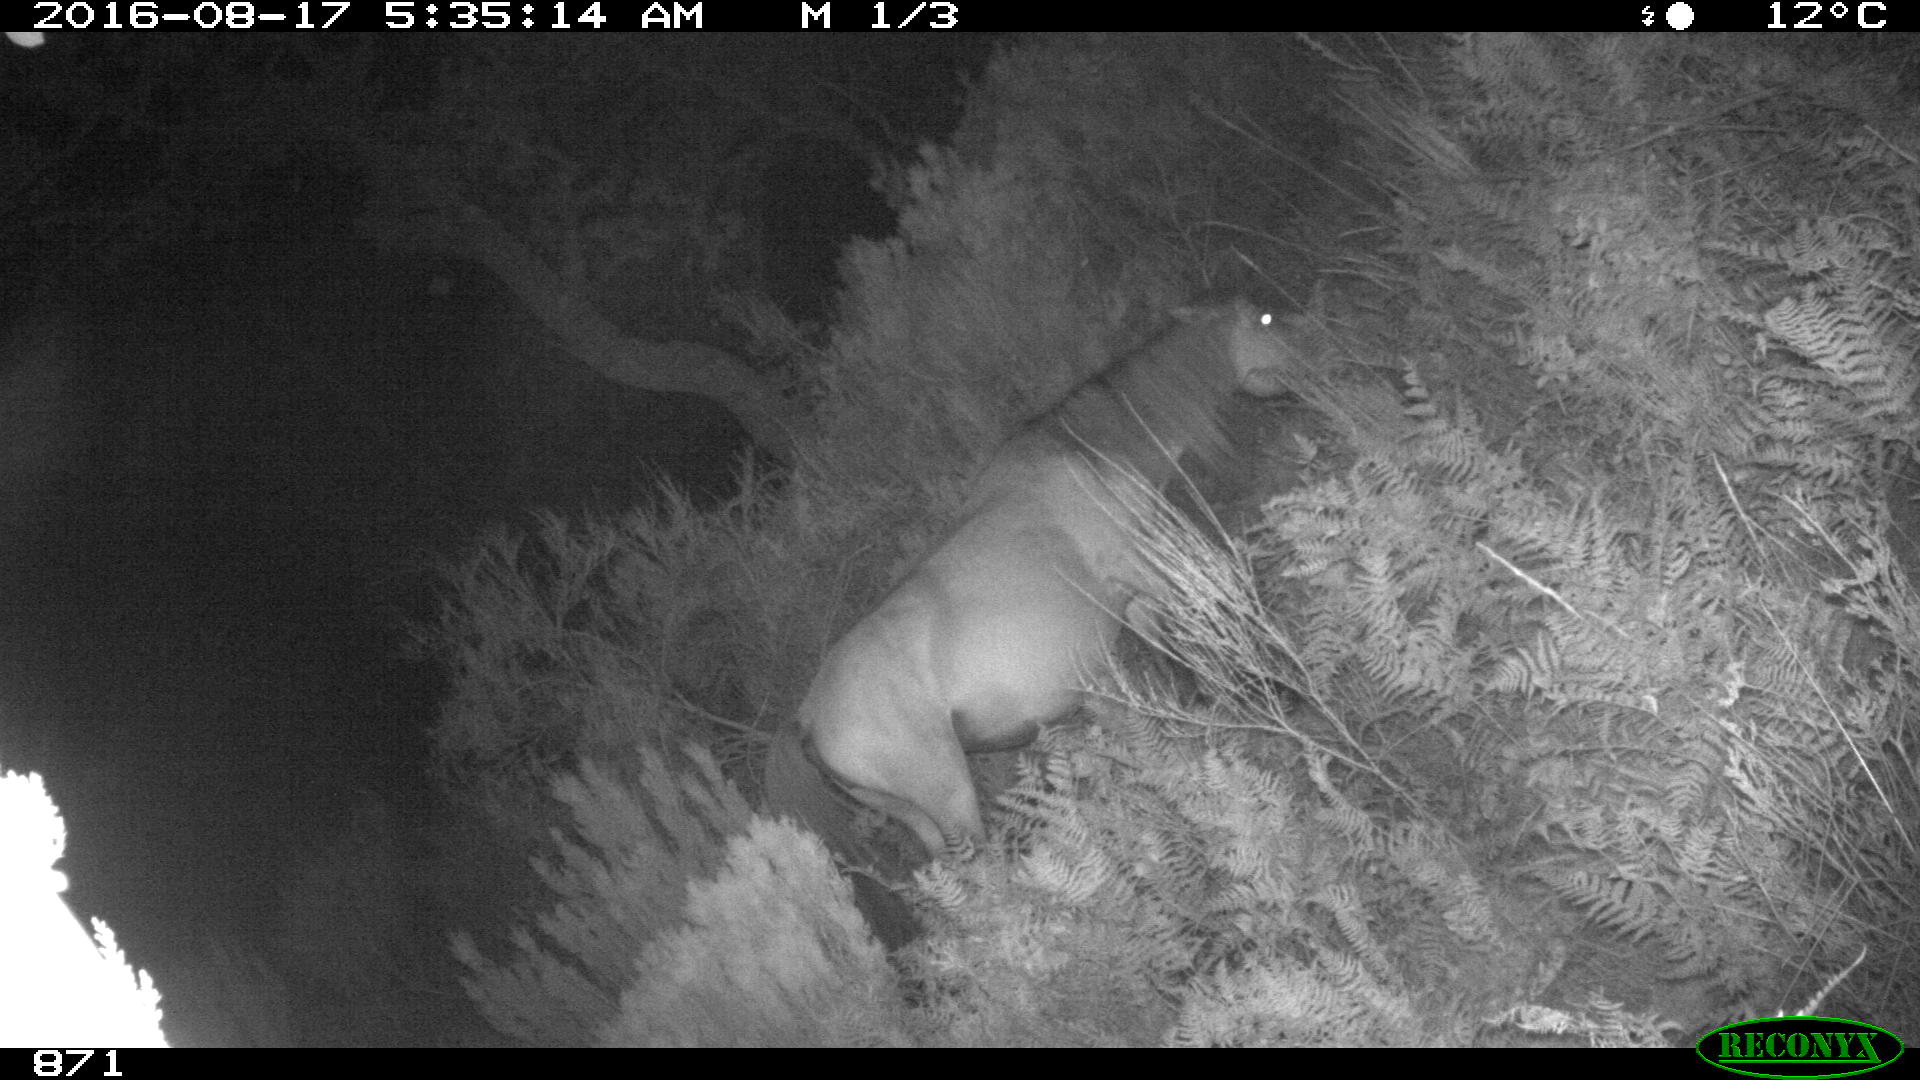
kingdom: Animalia
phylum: Chordata
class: Mammalia
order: Perissodactyla
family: Equidae
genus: Equus
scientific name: Equus caballus
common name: Horse
